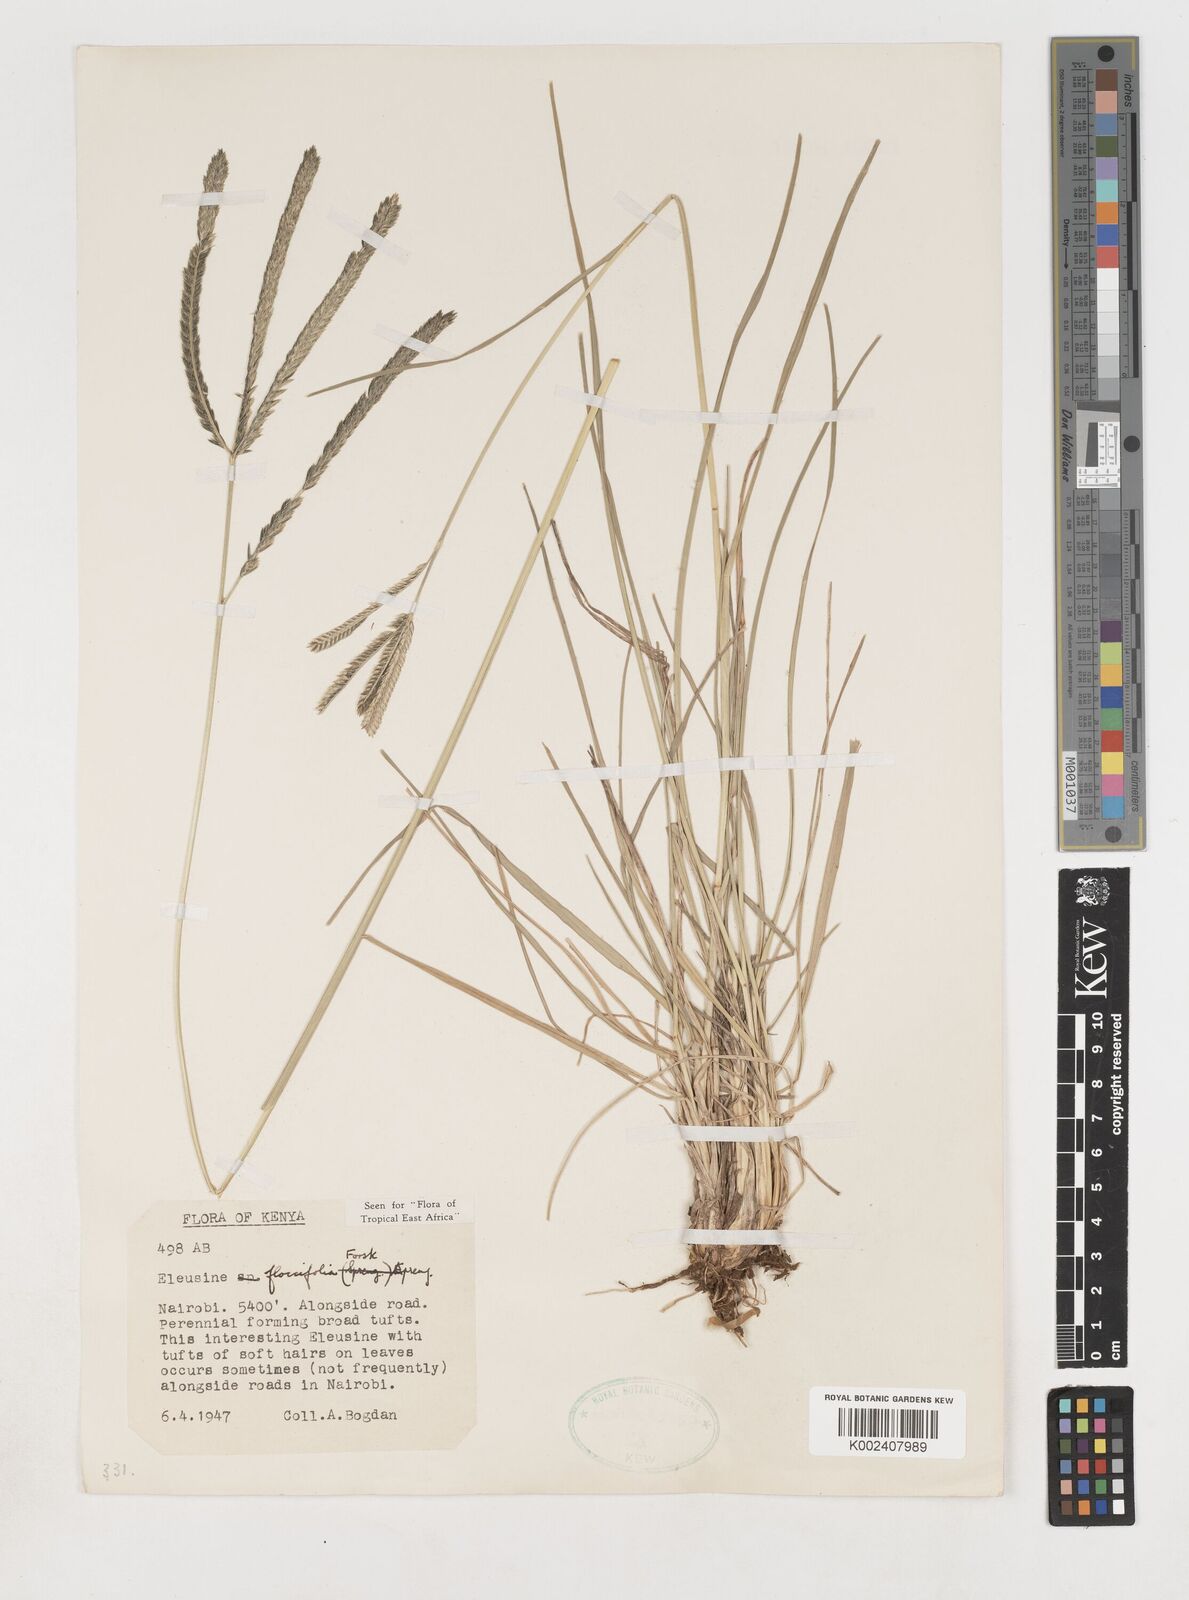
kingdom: Plantae
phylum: Tracheophyta
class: Liliopsida
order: Poales
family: Poaceae
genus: Eleusine
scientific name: Eleusine floccifolia
